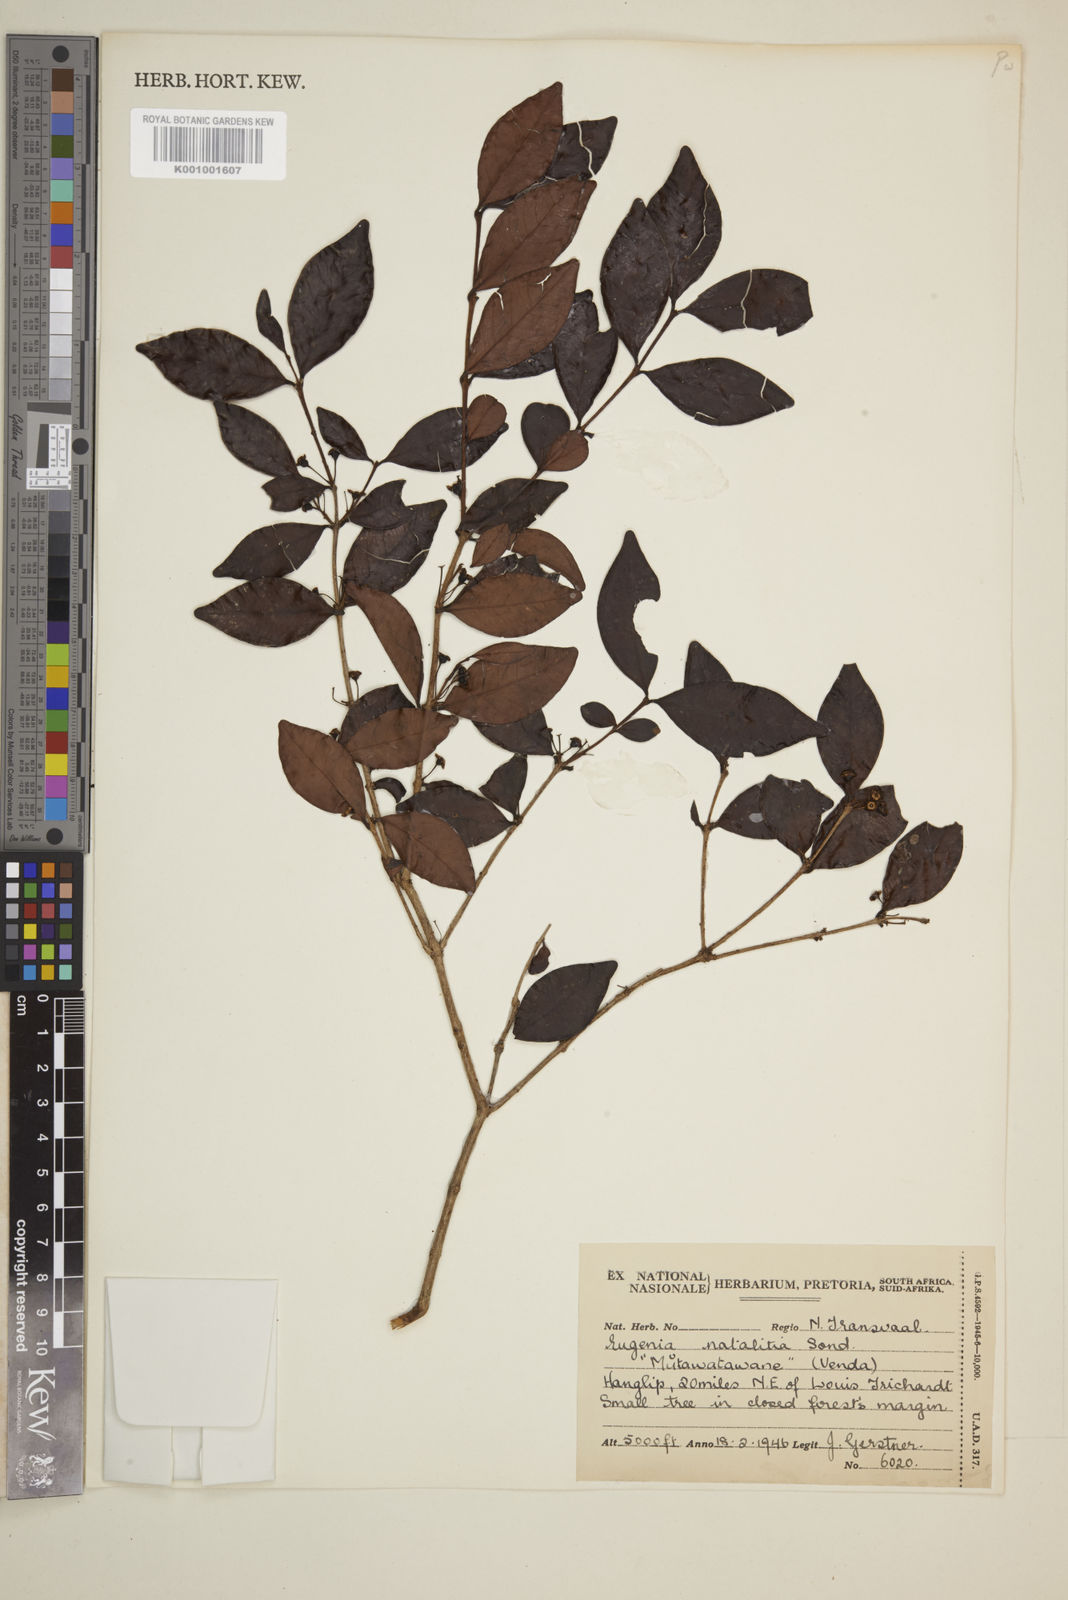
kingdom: Plantae
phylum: Tracheophyta
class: Magnoliopsida
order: Myrtales
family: Myrtaceae
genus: Eugenia
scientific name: Eugenia natalitia
